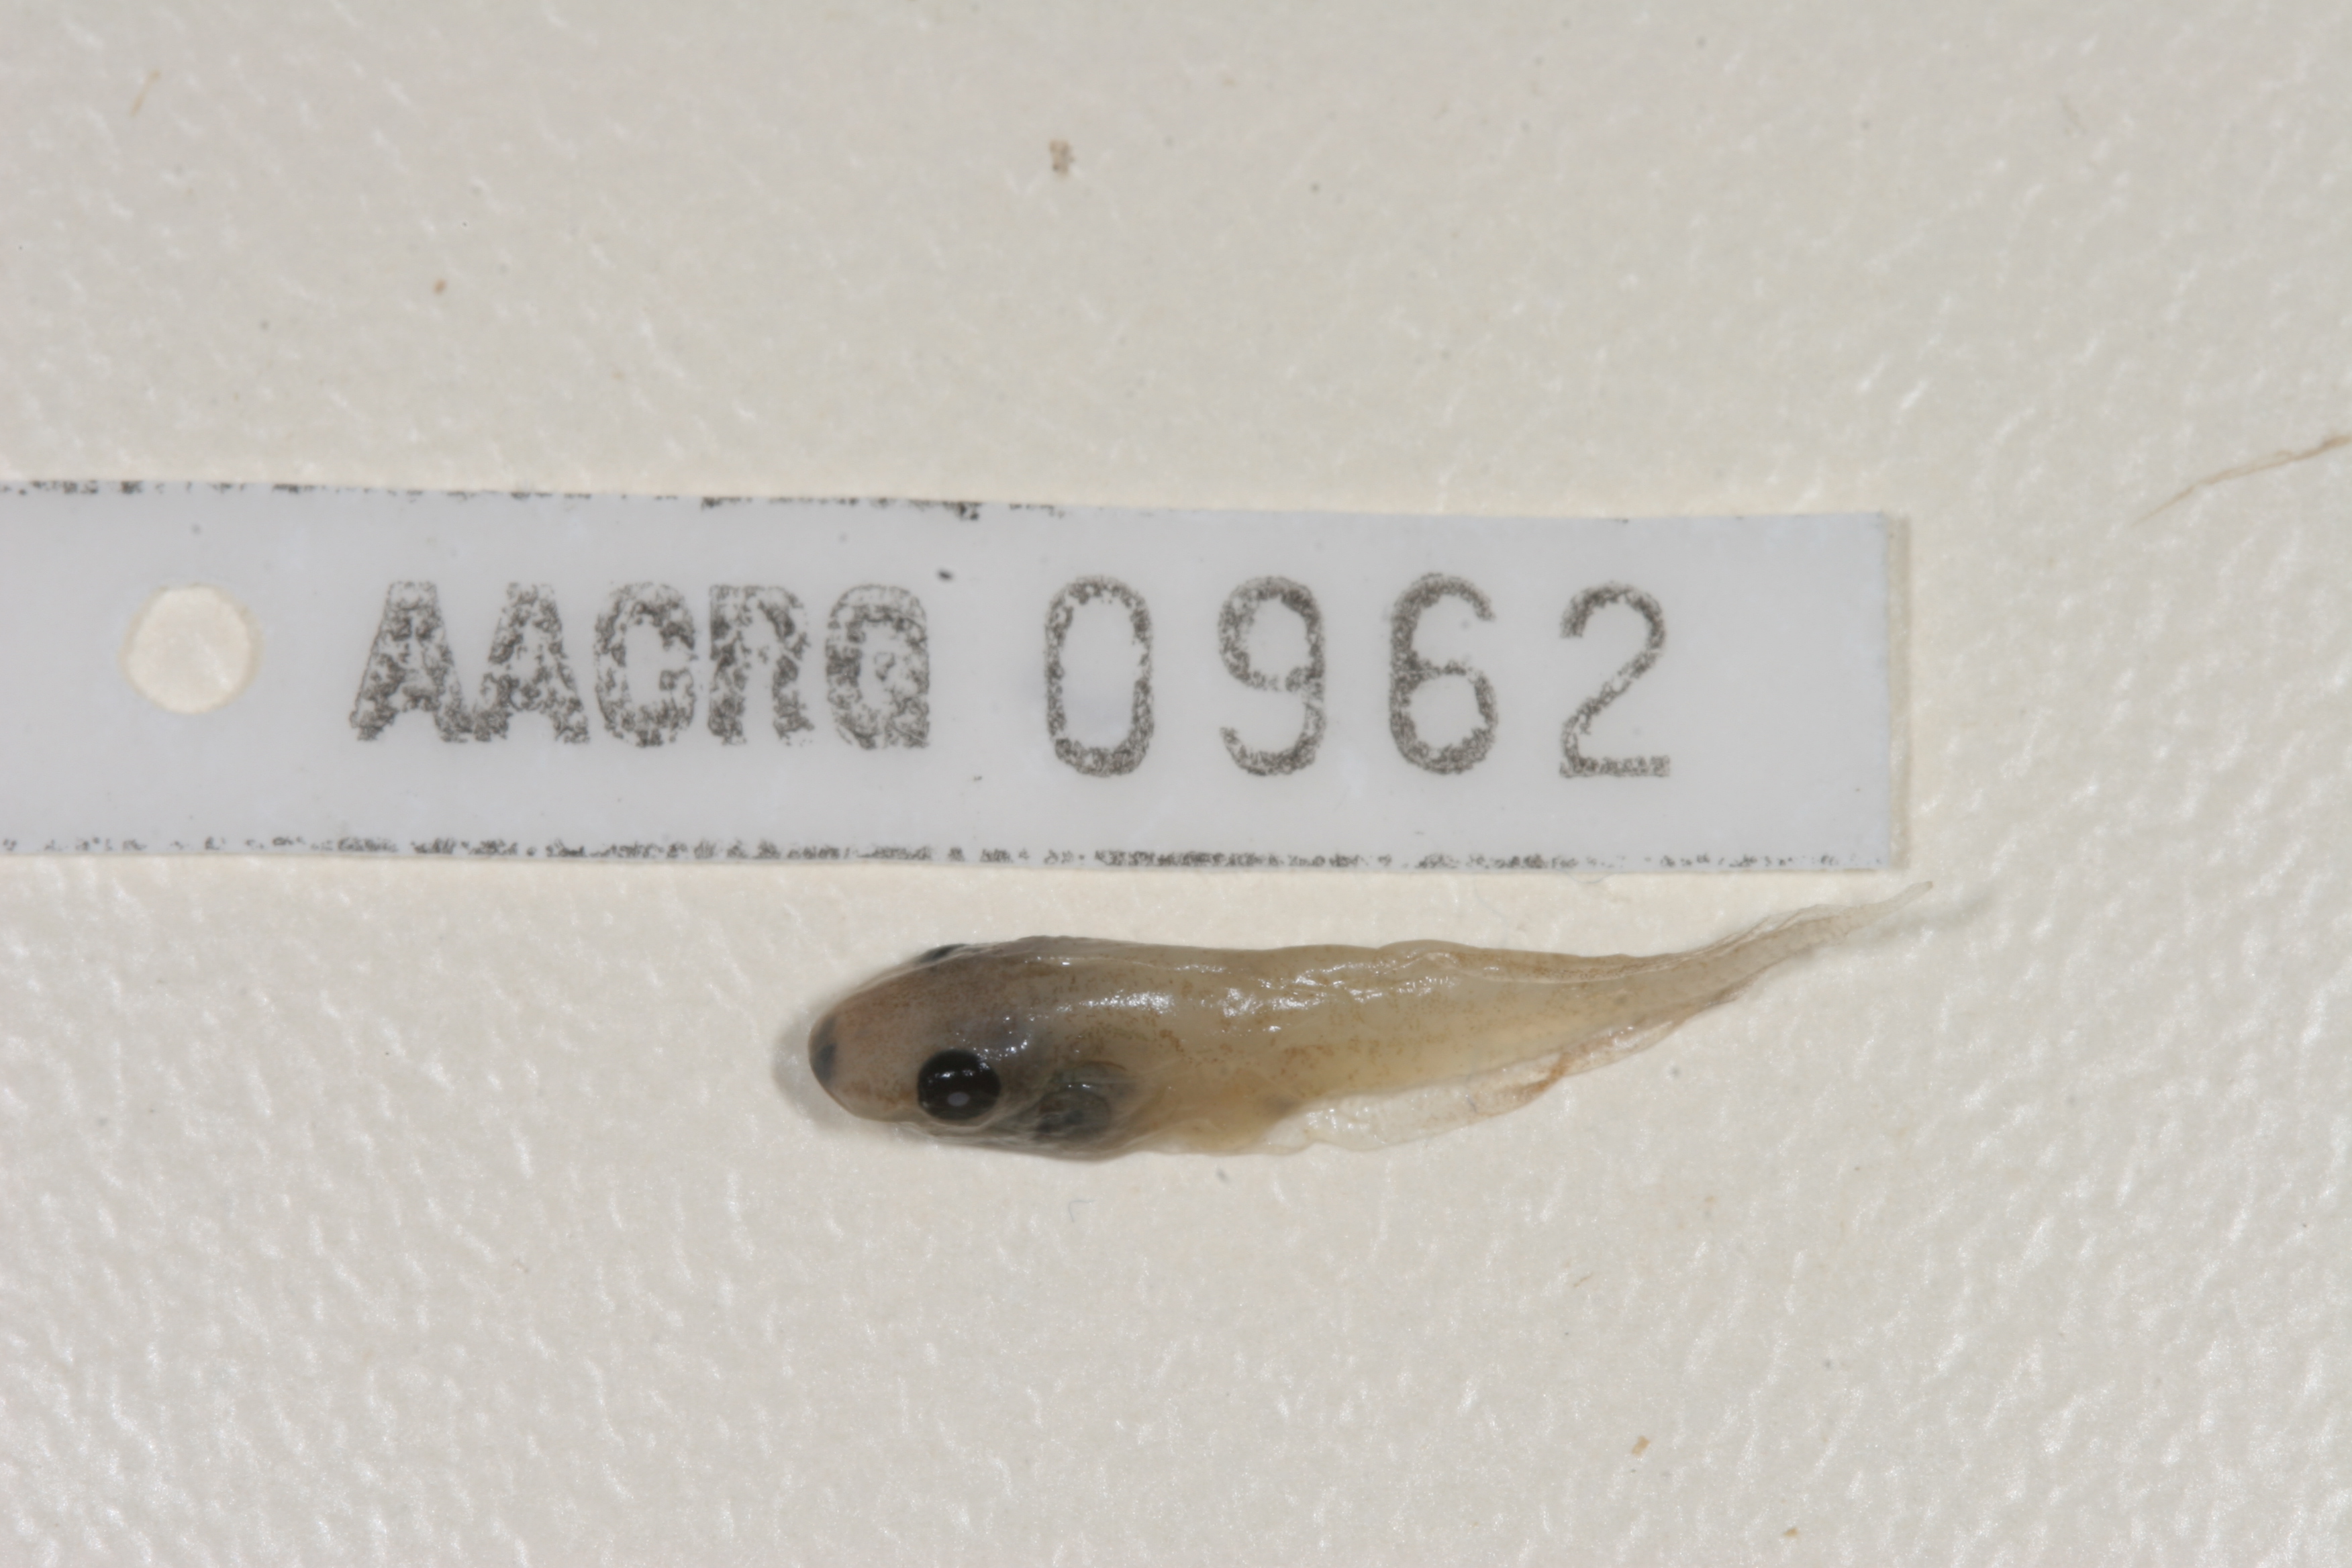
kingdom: Animalia
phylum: Chordata
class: Amphibia
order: Anura
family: Hyperoliidae
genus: Kassina
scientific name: Kassina senegalensis
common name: Senegal land frog
